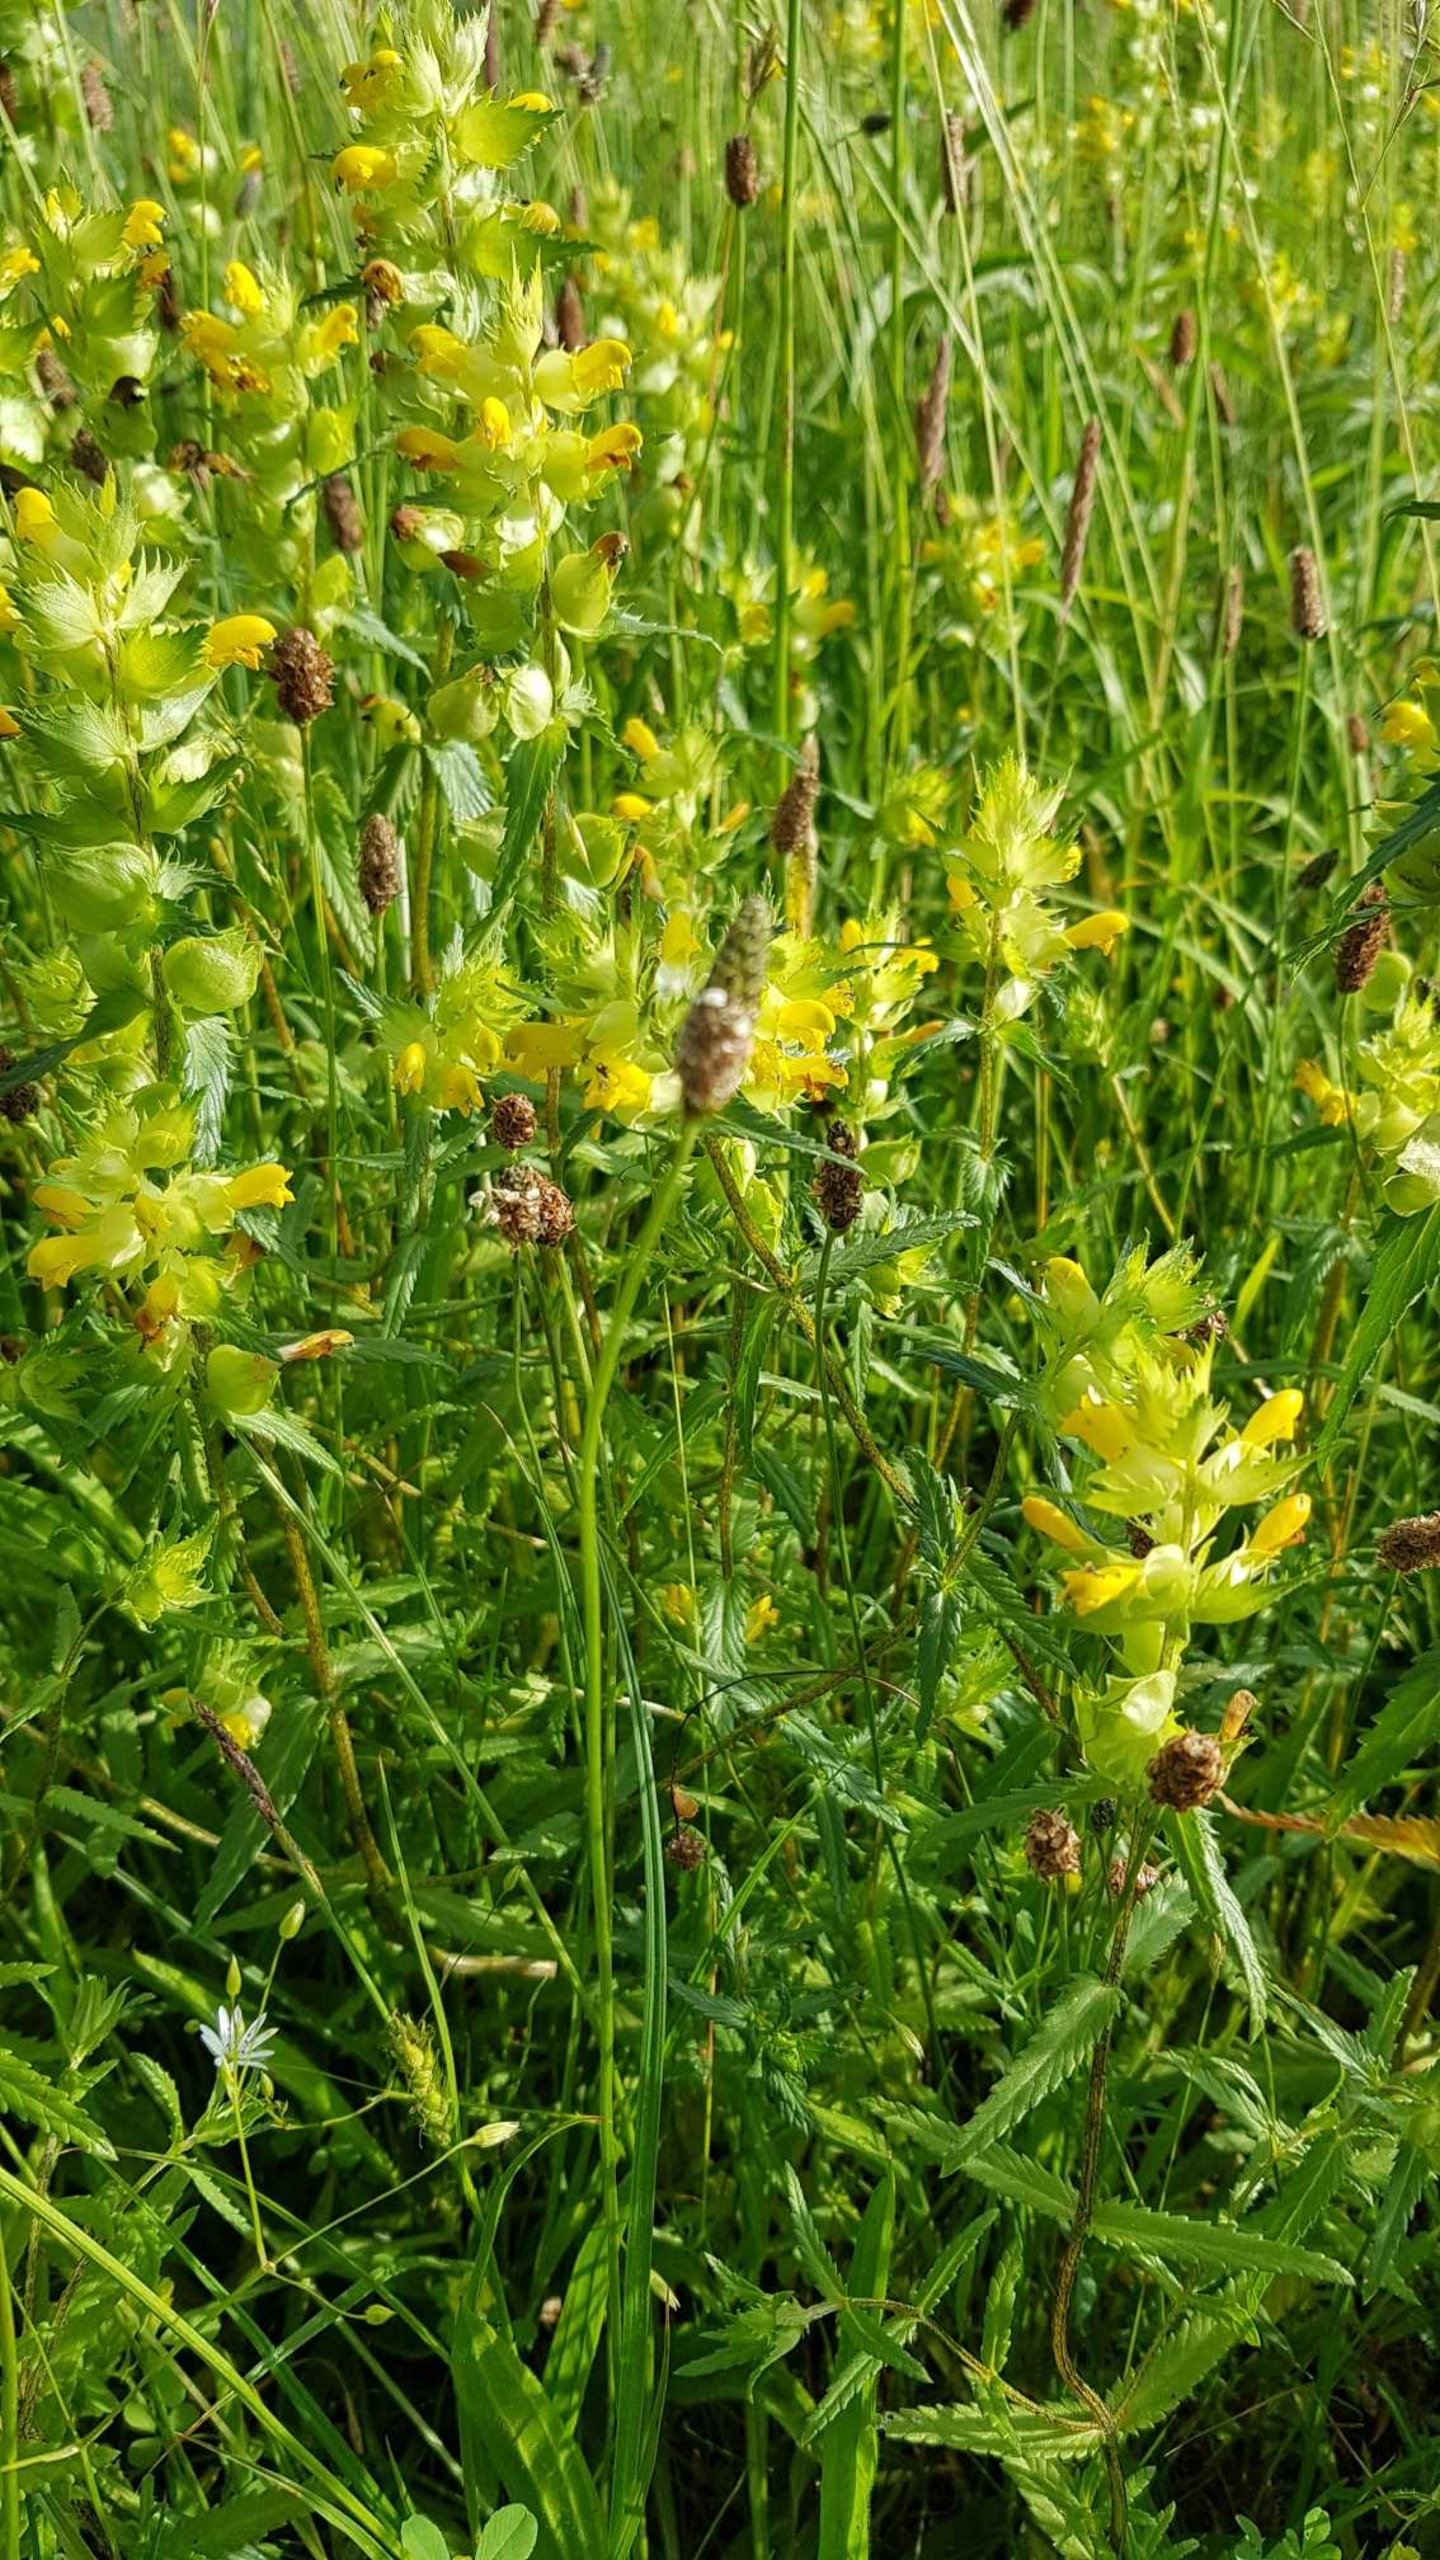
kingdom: Plantae
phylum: Tracheophyta
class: Magnoliopsida
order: Lamiales
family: Orobanchaceae
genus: Rhinanthus
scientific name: Rhinanthus
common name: Stor skjaller
